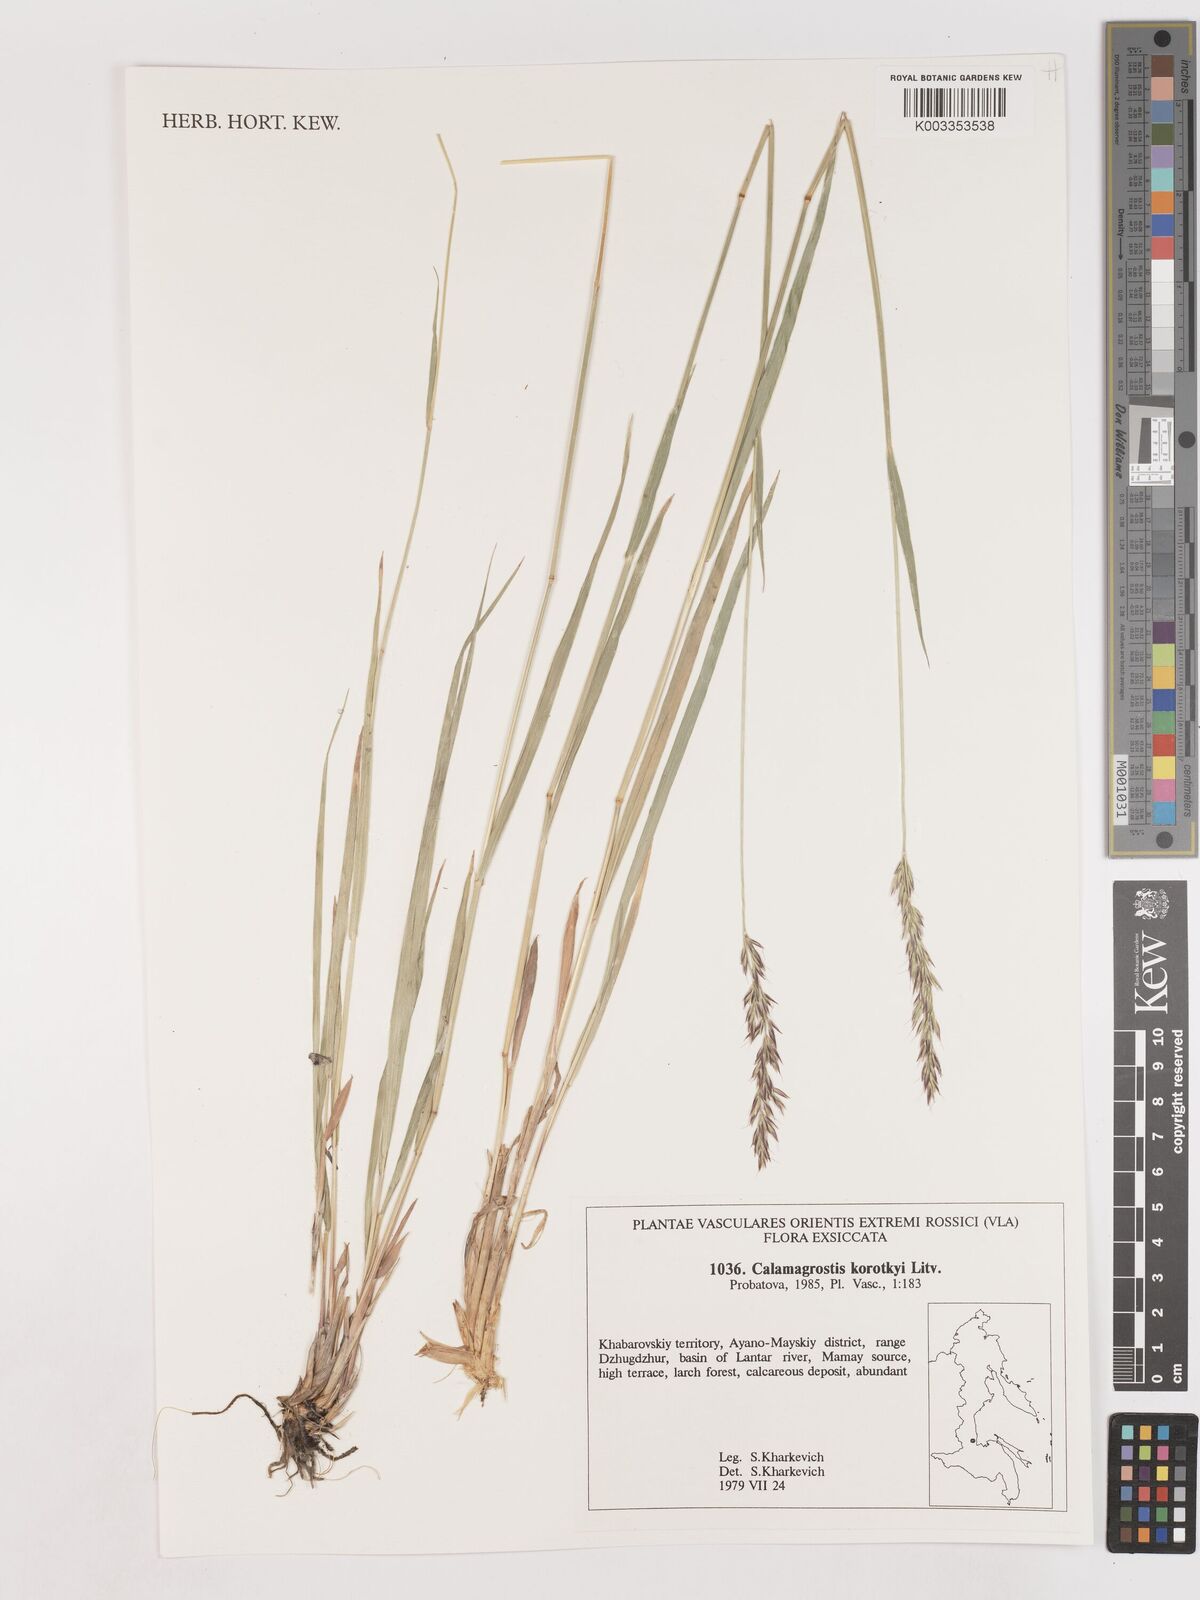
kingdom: Plantae
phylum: Tracheophyta
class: Liliopsida
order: Poales
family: Poaceae
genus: Calamagrostis
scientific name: Calamagrostis korotkyi
